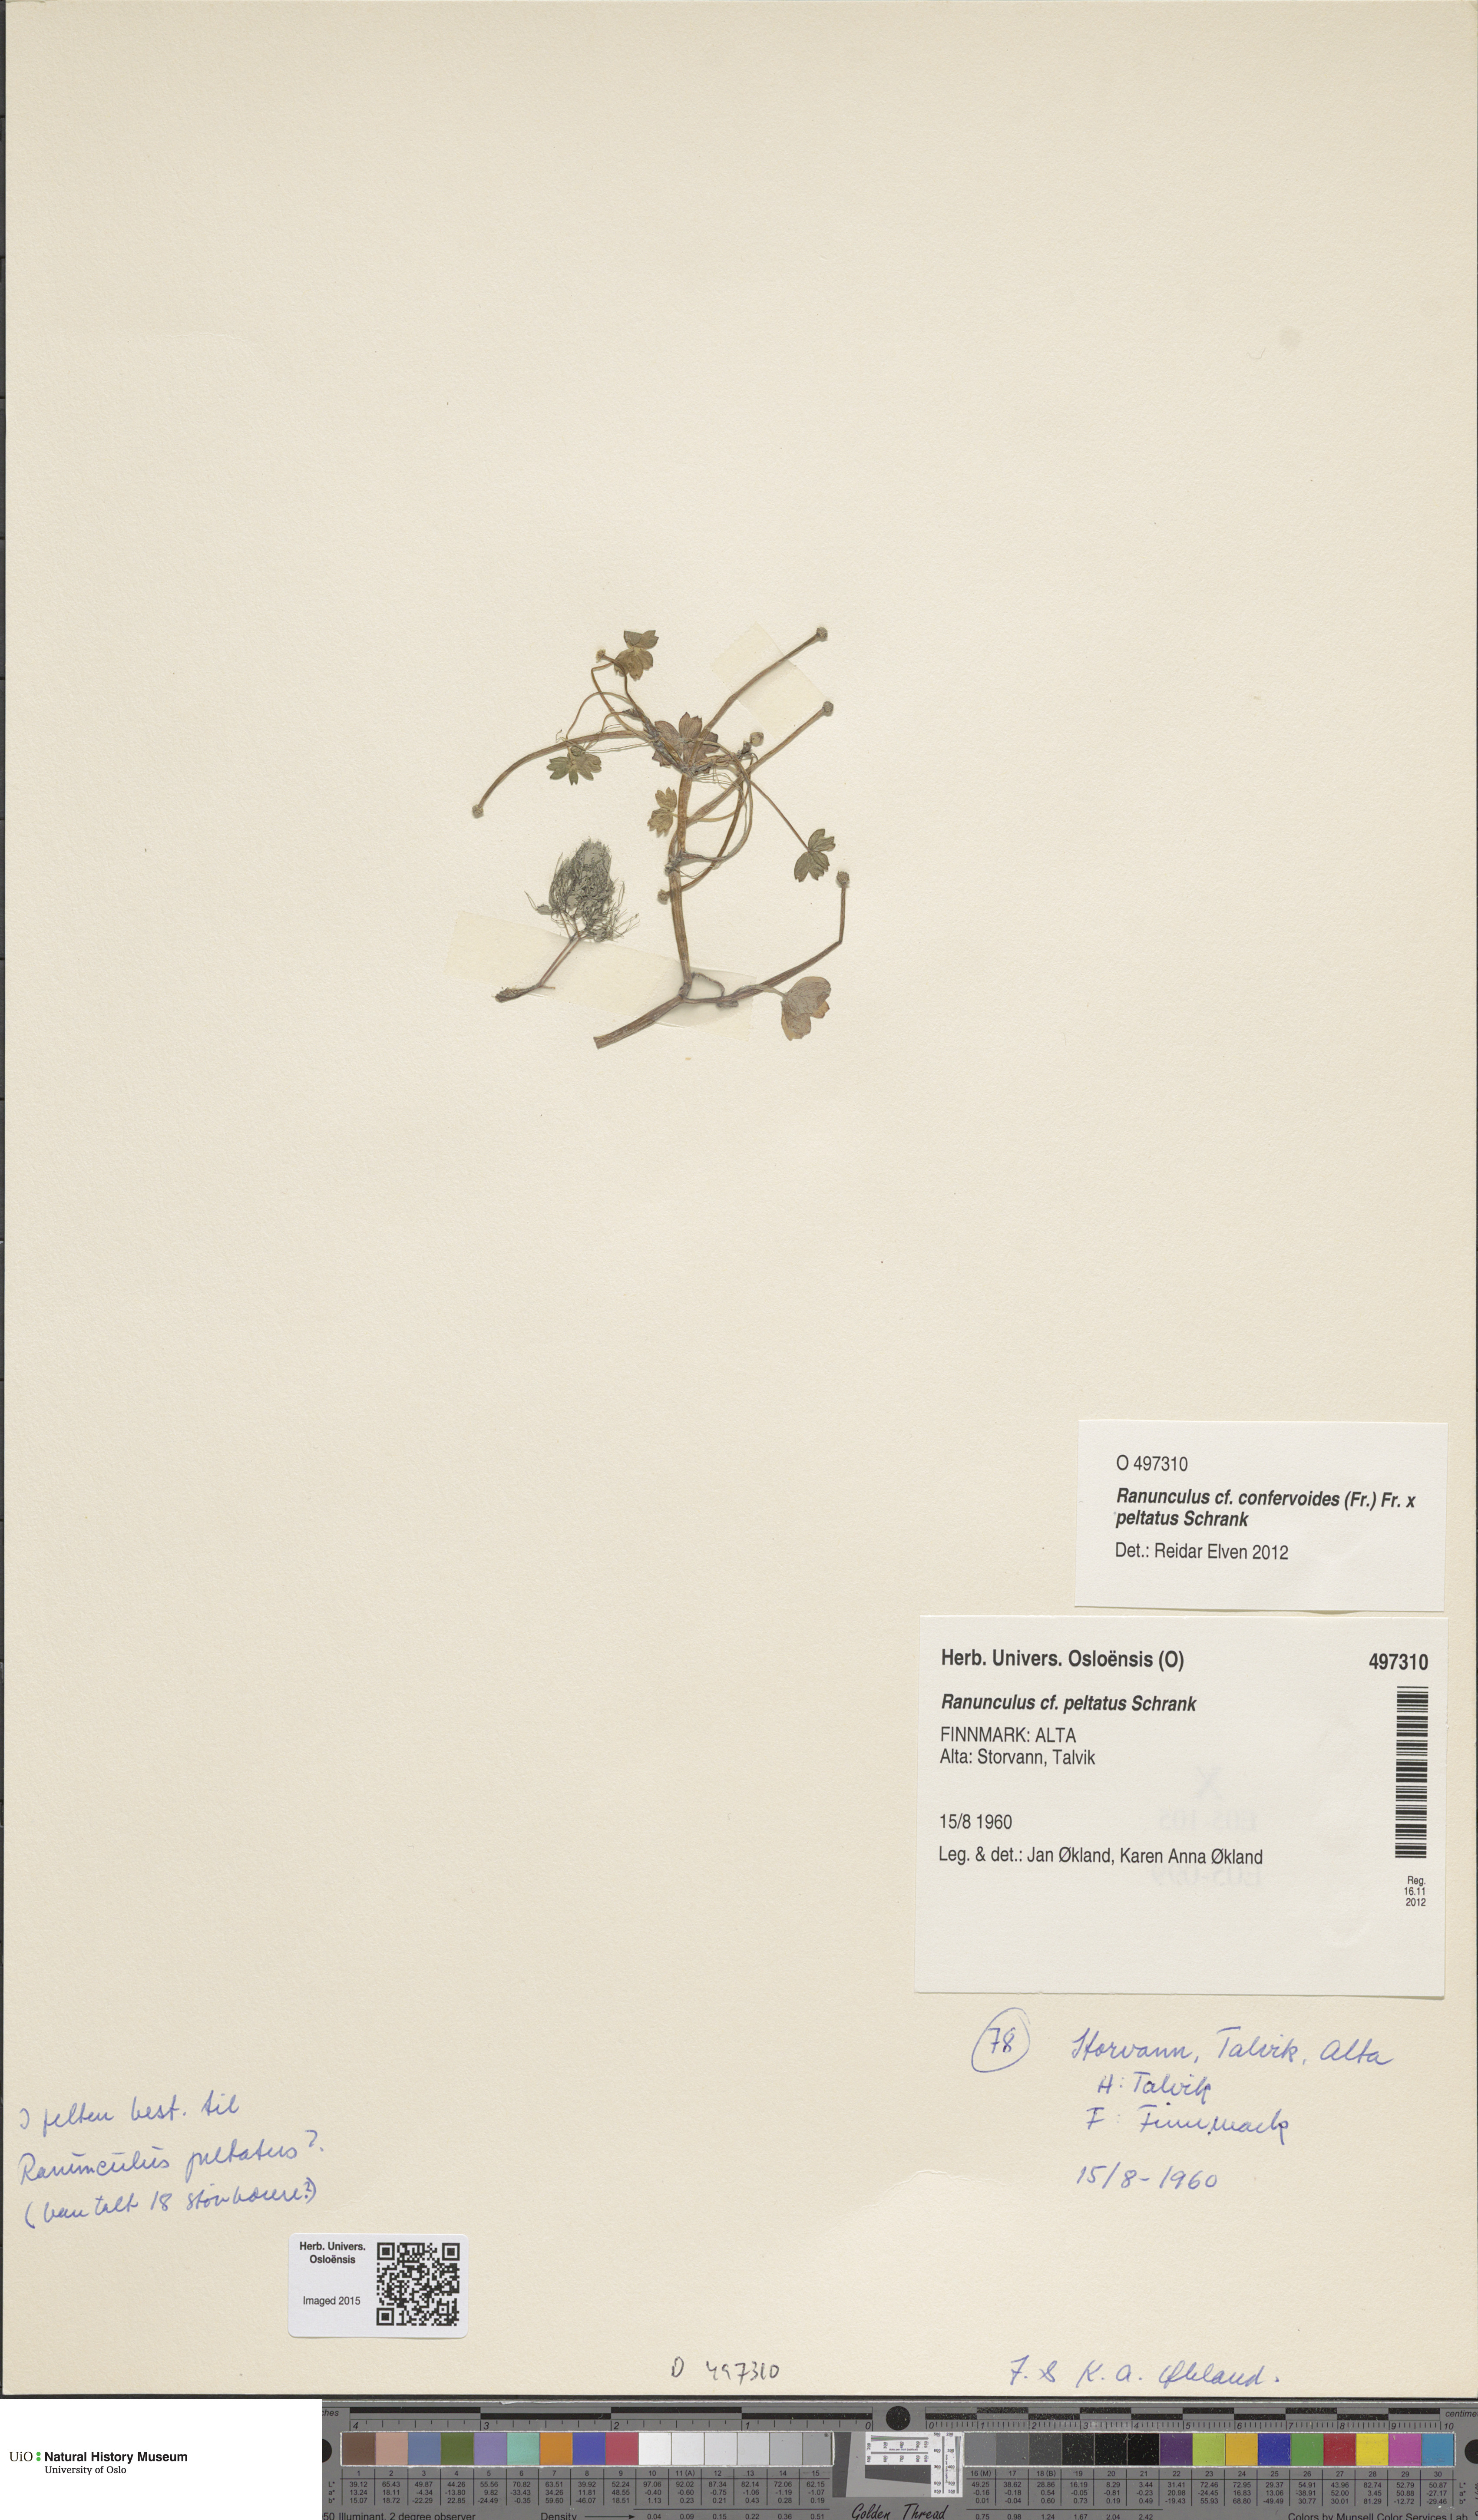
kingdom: Plantae
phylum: Tracheophyta
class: Magnoliopsida
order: Ranunculales
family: Ranunculaceae
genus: Ranunculus
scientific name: Ranunculus
